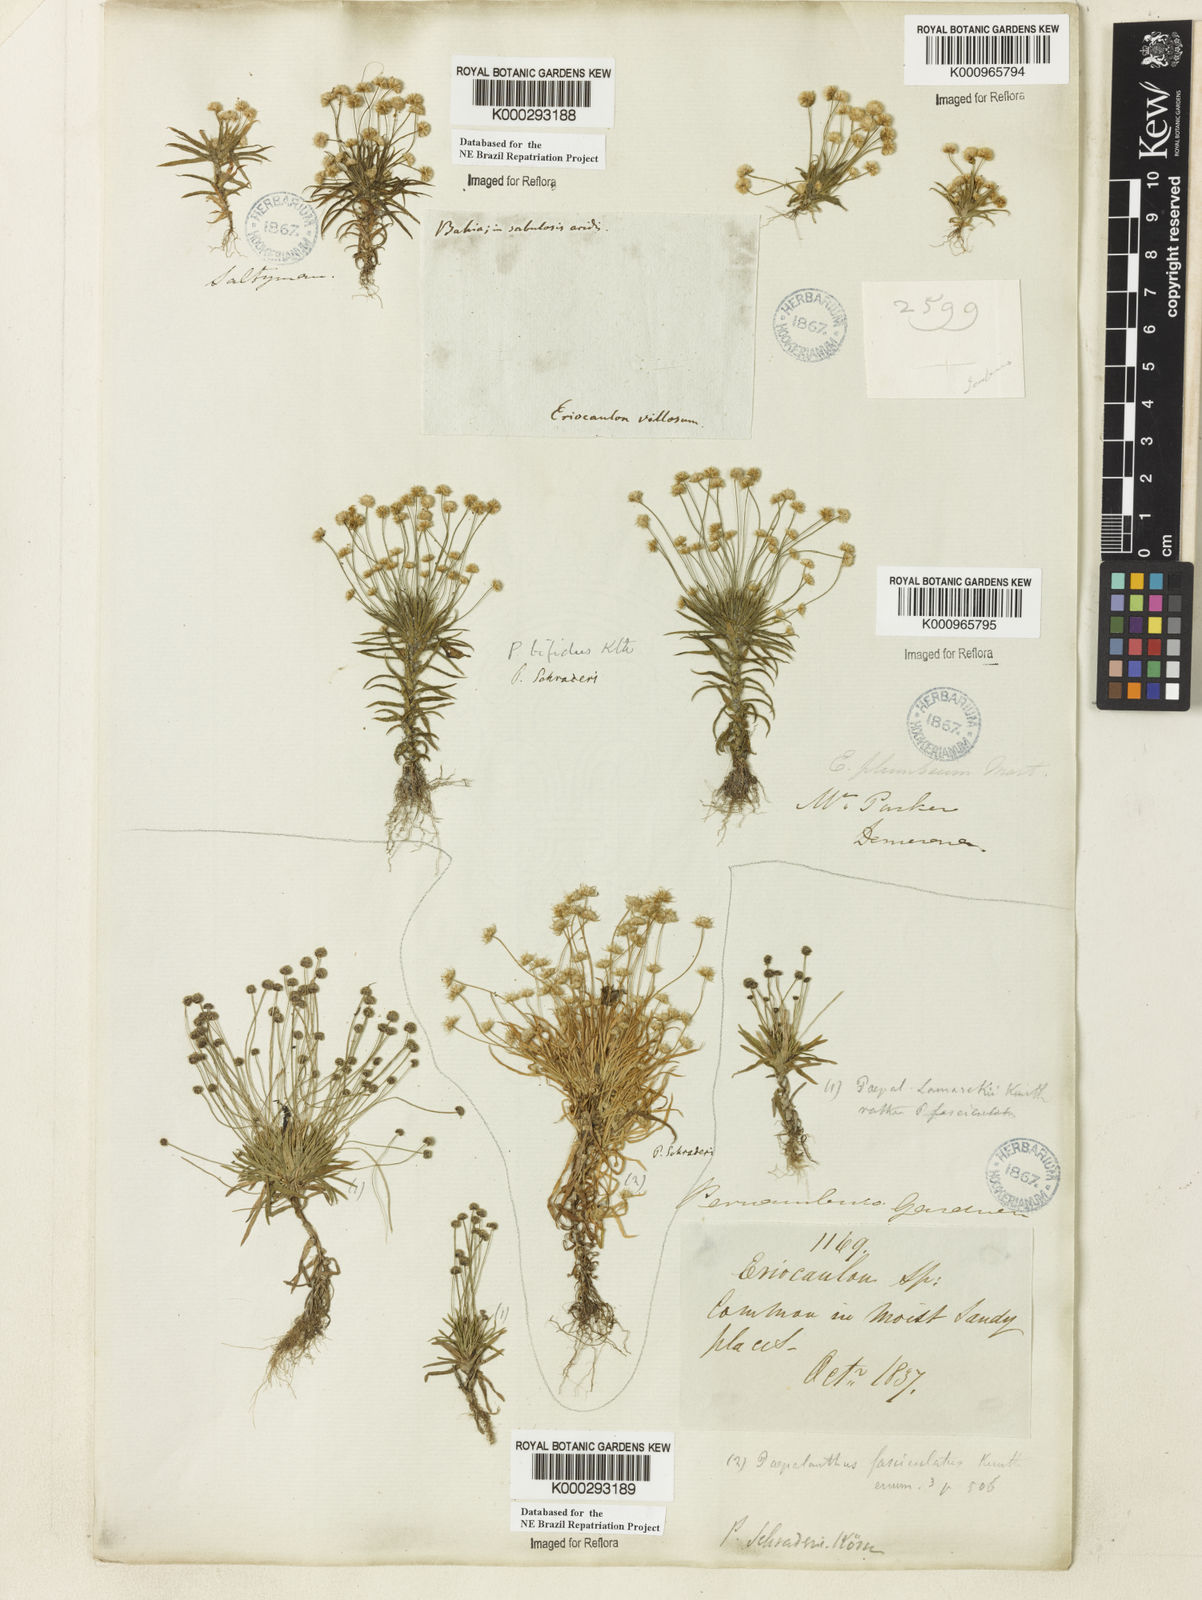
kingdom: Plantae
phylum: Tracheophyta
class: Liliopsida
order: Poales
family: Eriocaulaceae
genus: Paepalanthus
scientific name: Paepalanthus bifidus
